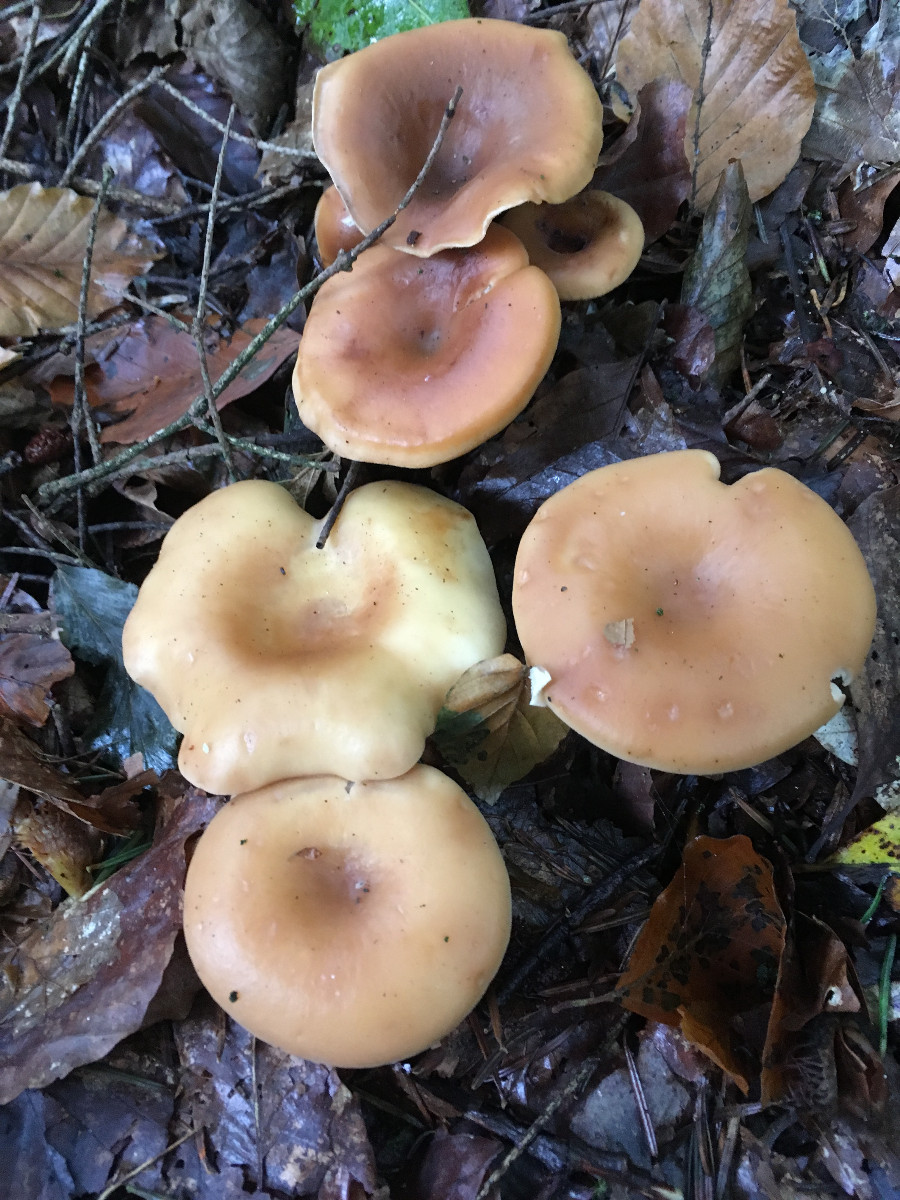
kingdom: Fungi
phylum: Basidiomycota
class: Agaricomycetes
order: Agaricales
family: Tricholomataceae
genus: Paralepista
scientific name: Paralepista flaccida
